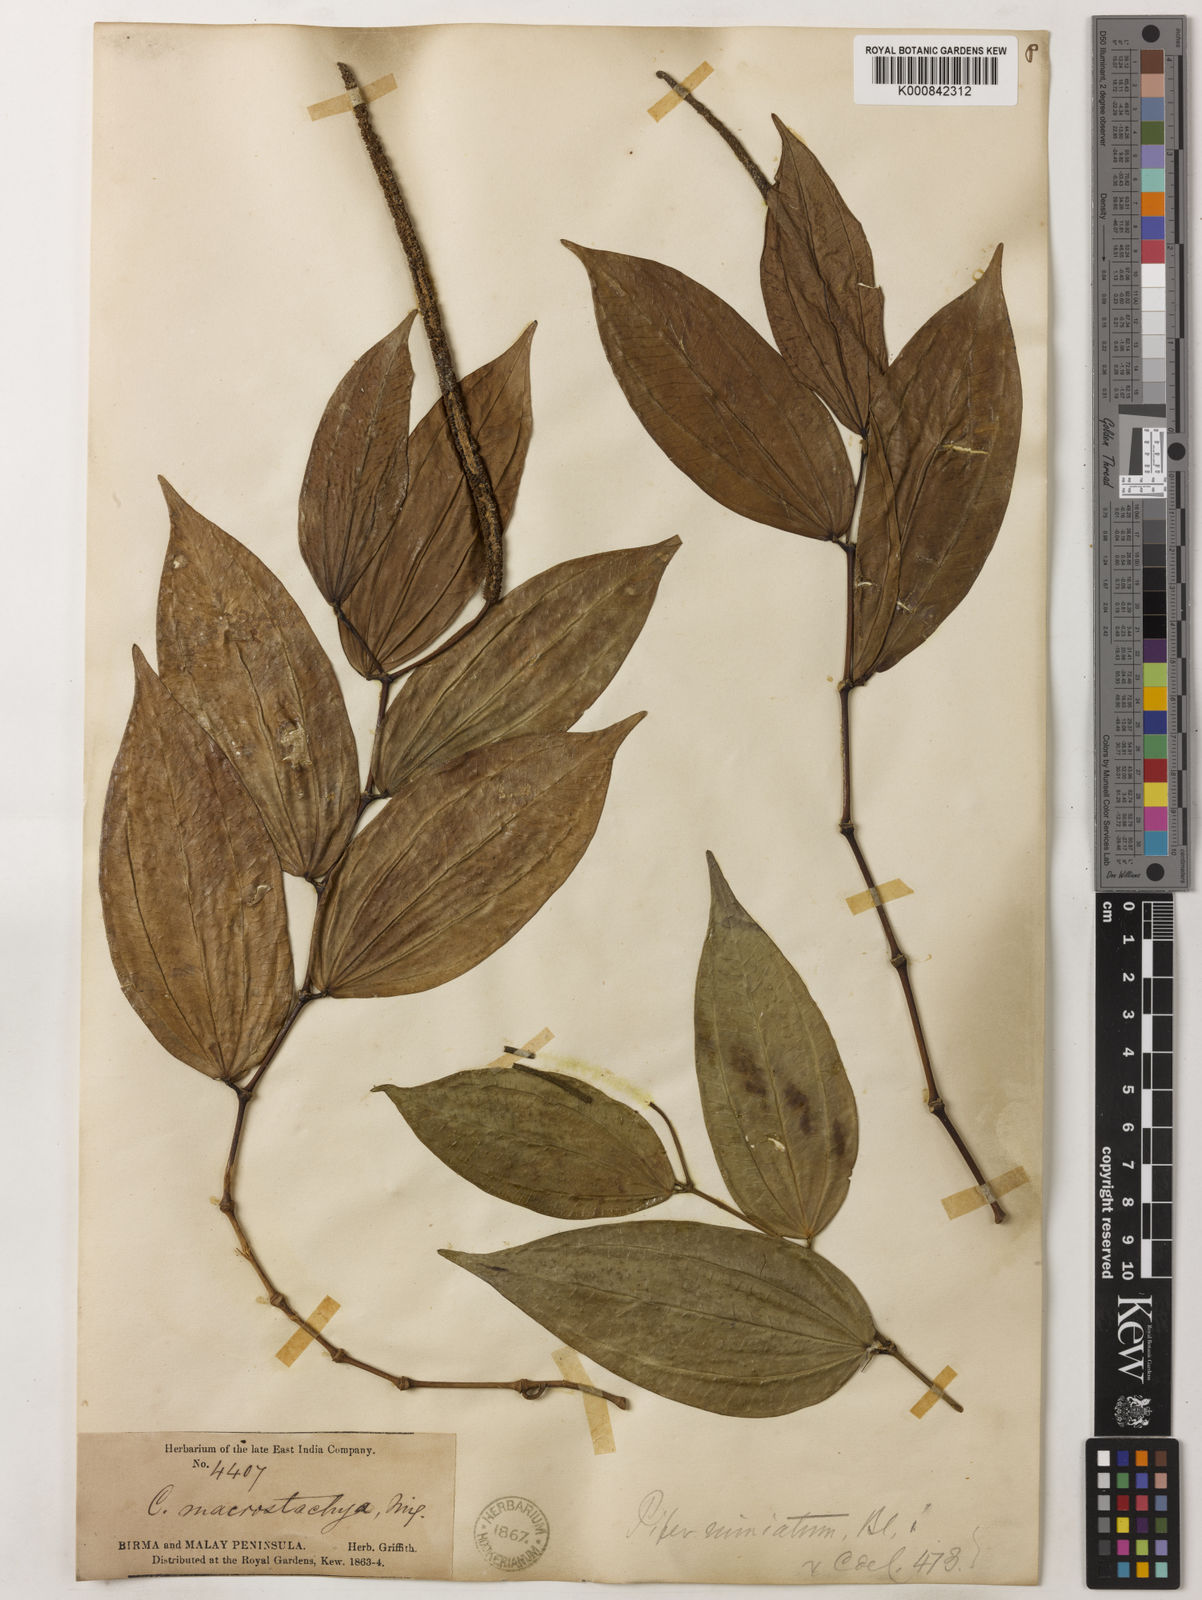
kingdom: Plantae
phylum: Tracheophyta
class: Magnoliopsida
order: Piperales
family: Piperaceae
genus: Piper
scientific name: Piper macropiper
